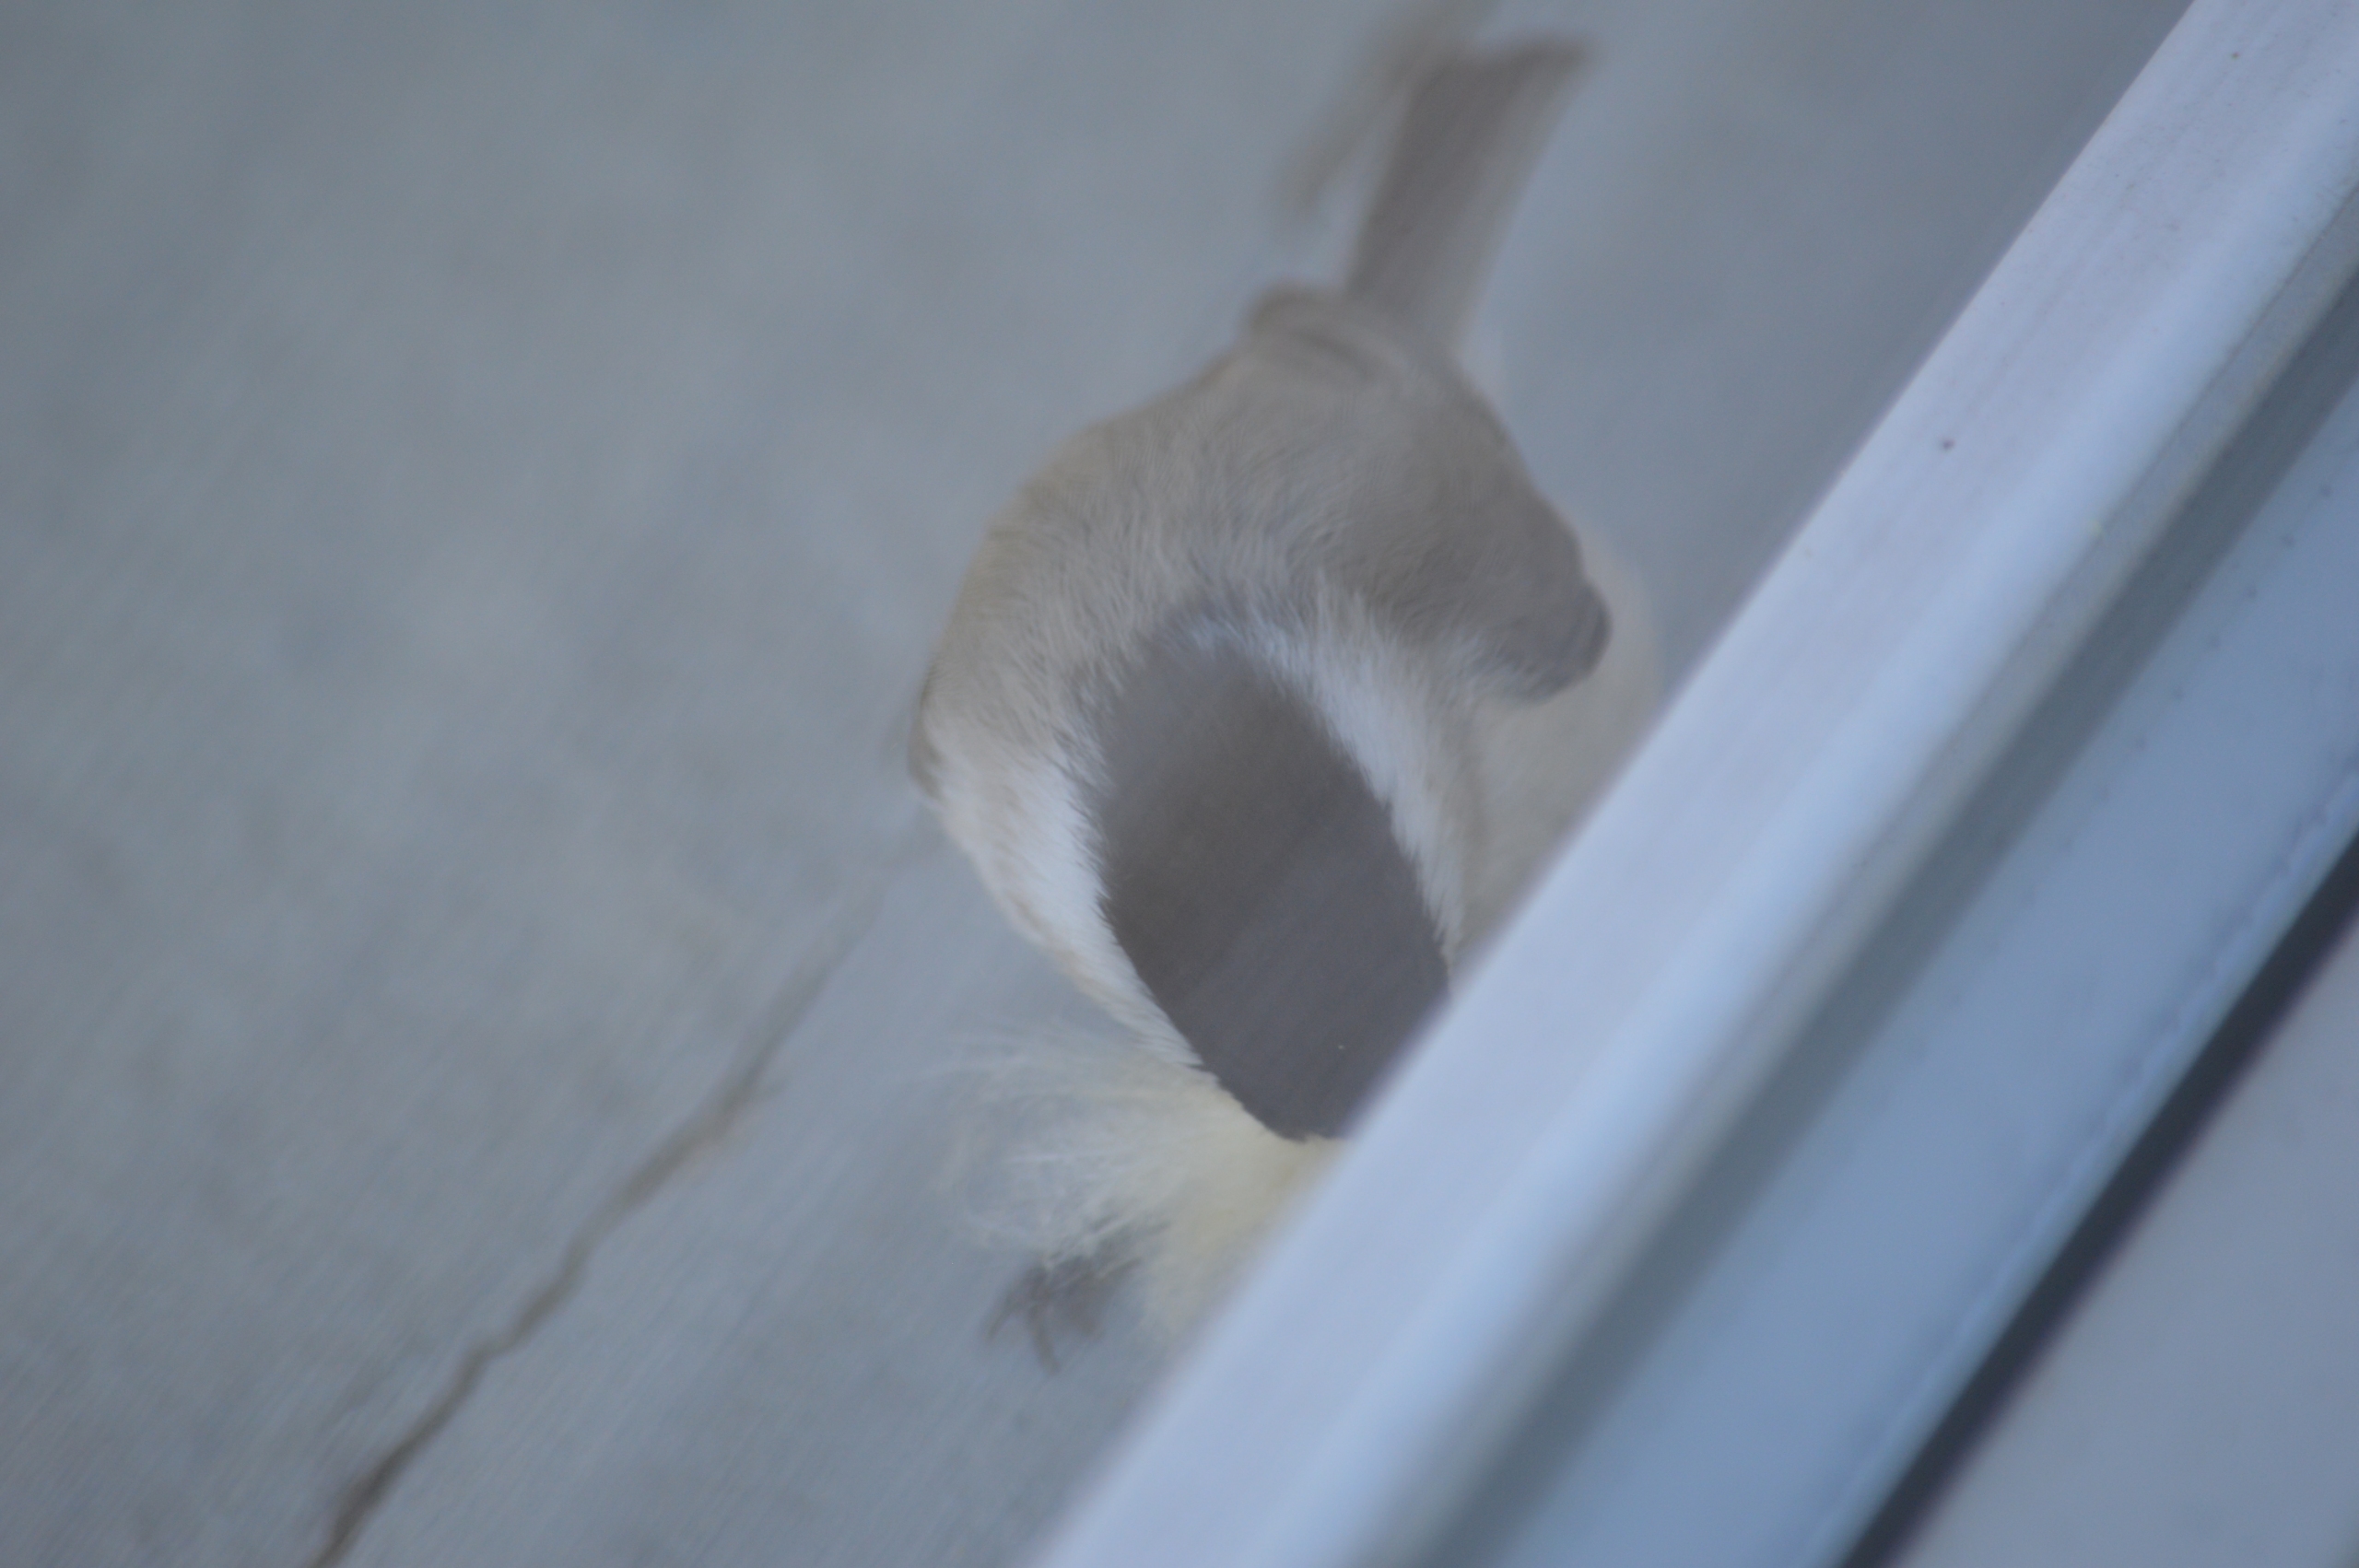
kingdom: Animalia
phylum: Chordata
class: Aves
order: Passeriformes
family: Paridae
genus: Poecile
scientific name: Poecile palustris
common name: Sumpmejse
